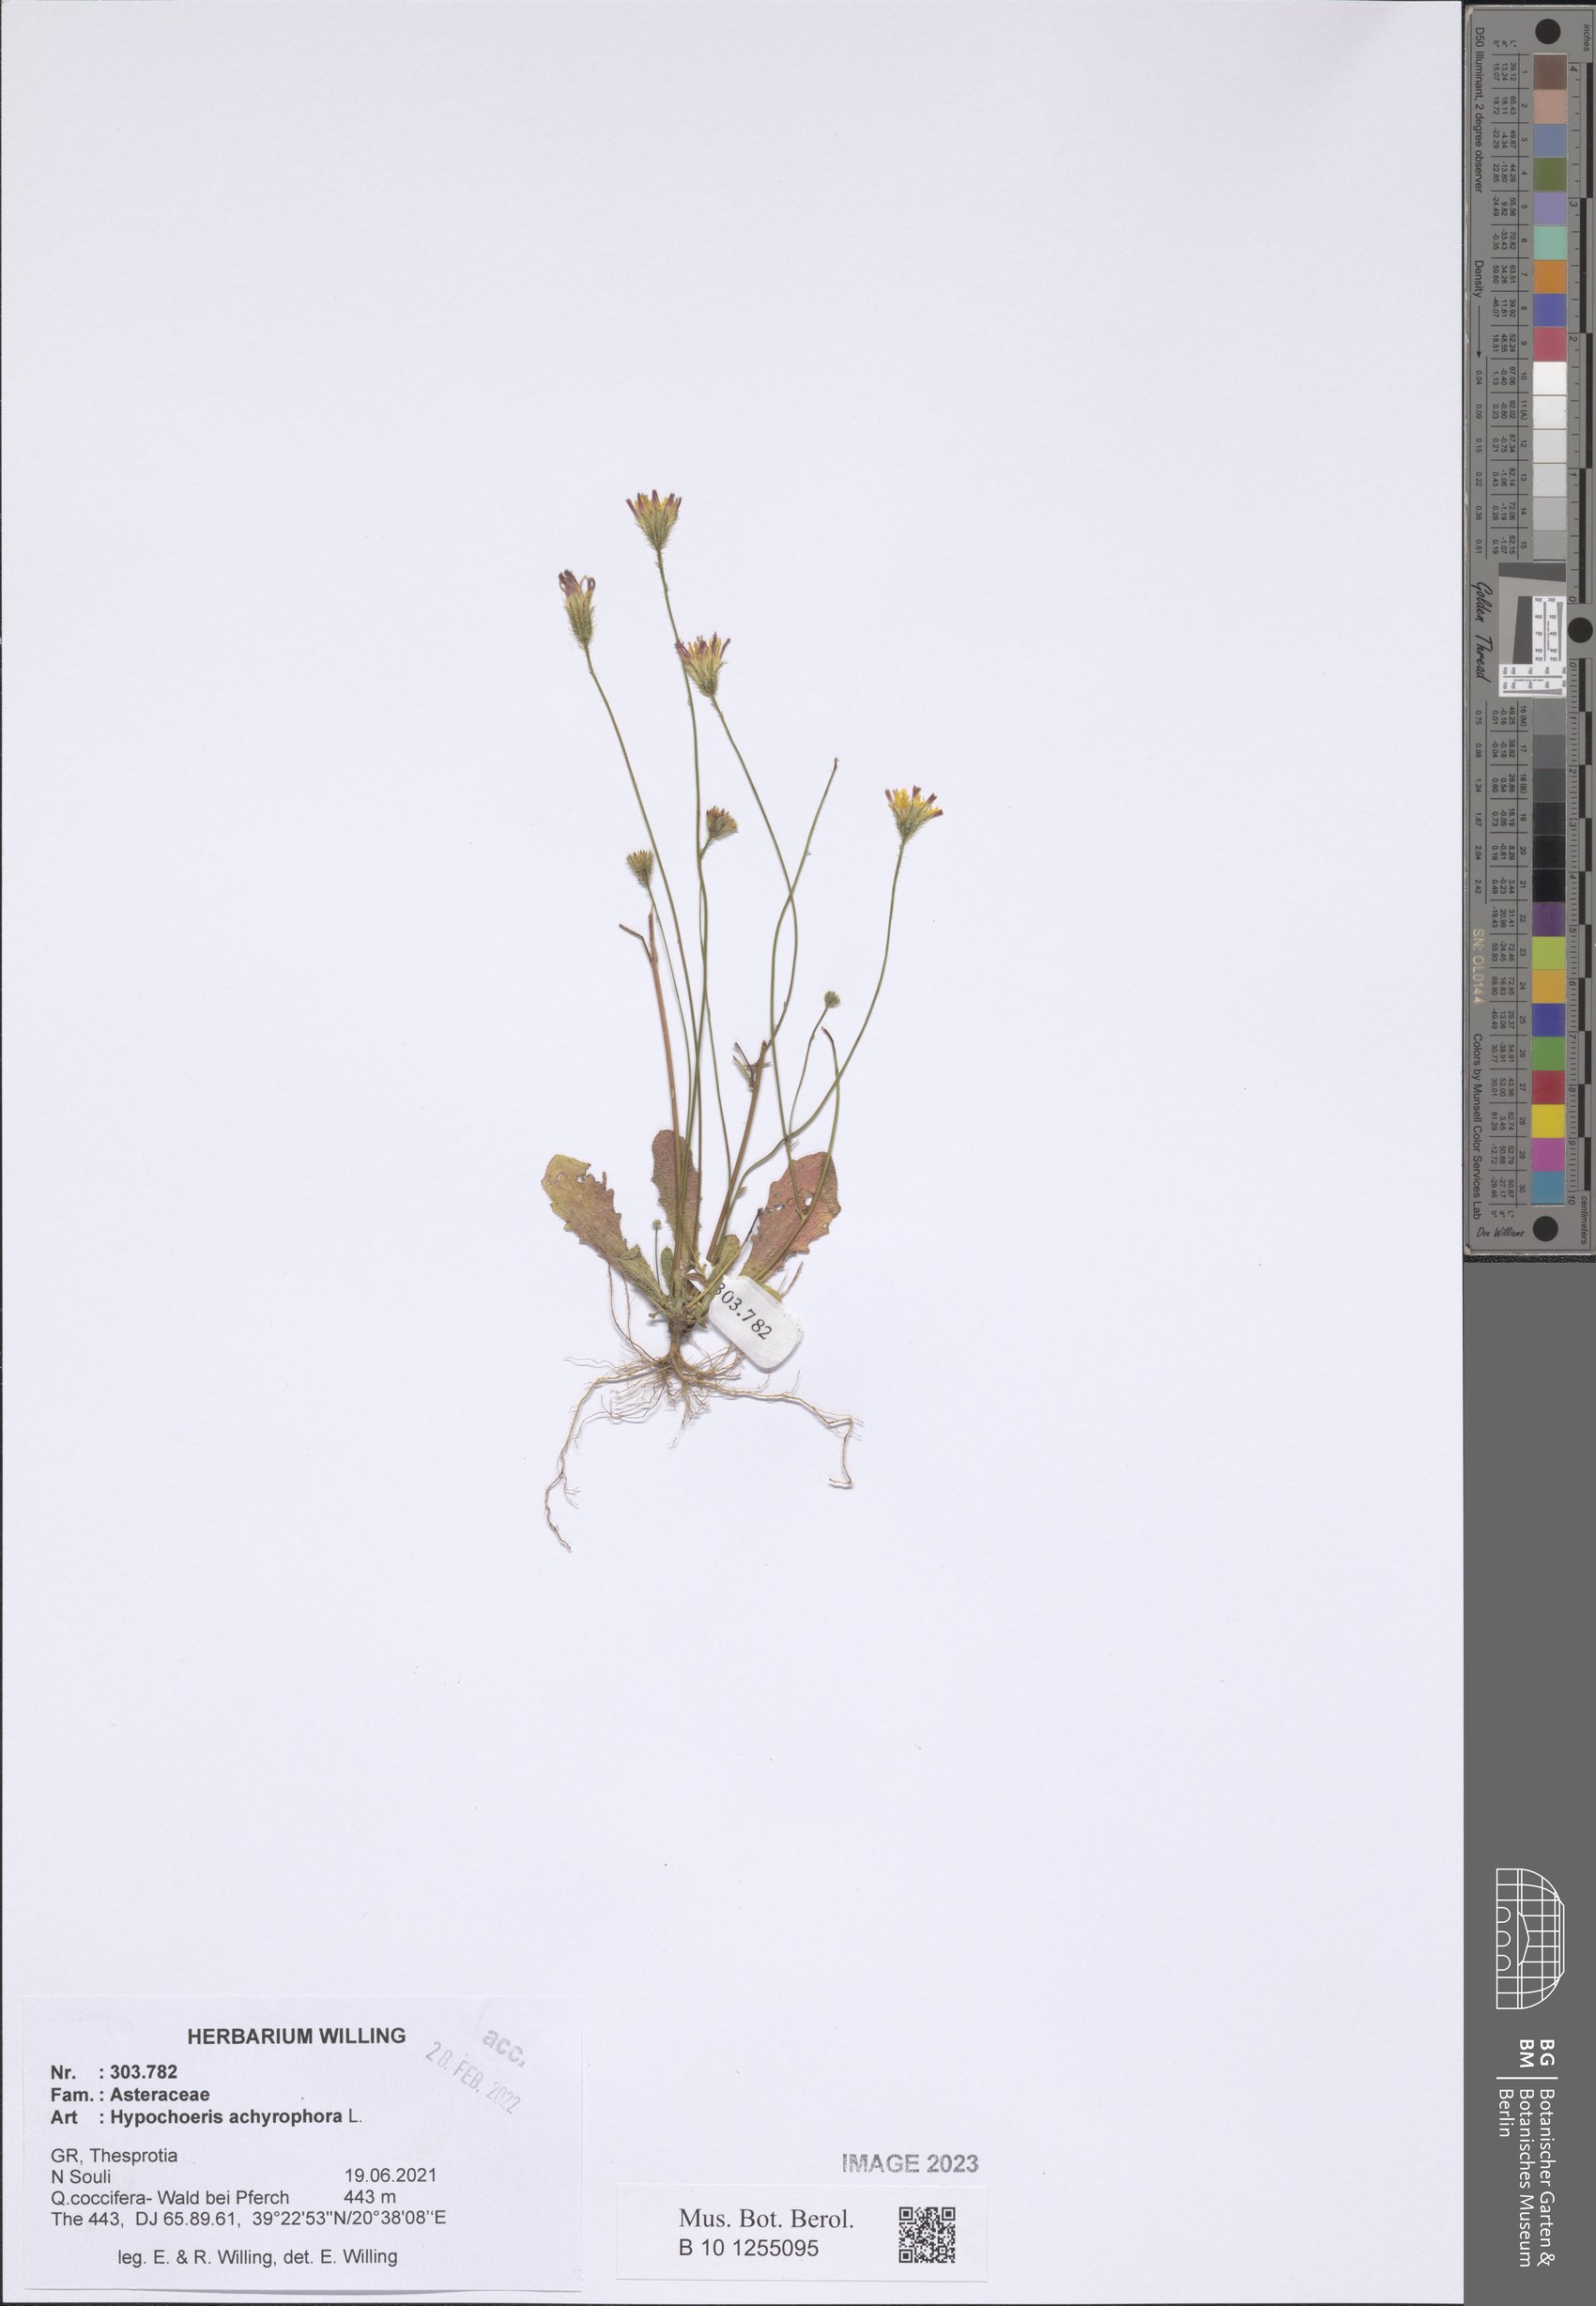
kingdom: Plantae
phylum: Tracheophyta
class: Magnoliopsida
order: Asterales
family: Asteraceae
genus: Achyrophorus
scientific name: Achyrophorus valdesii
